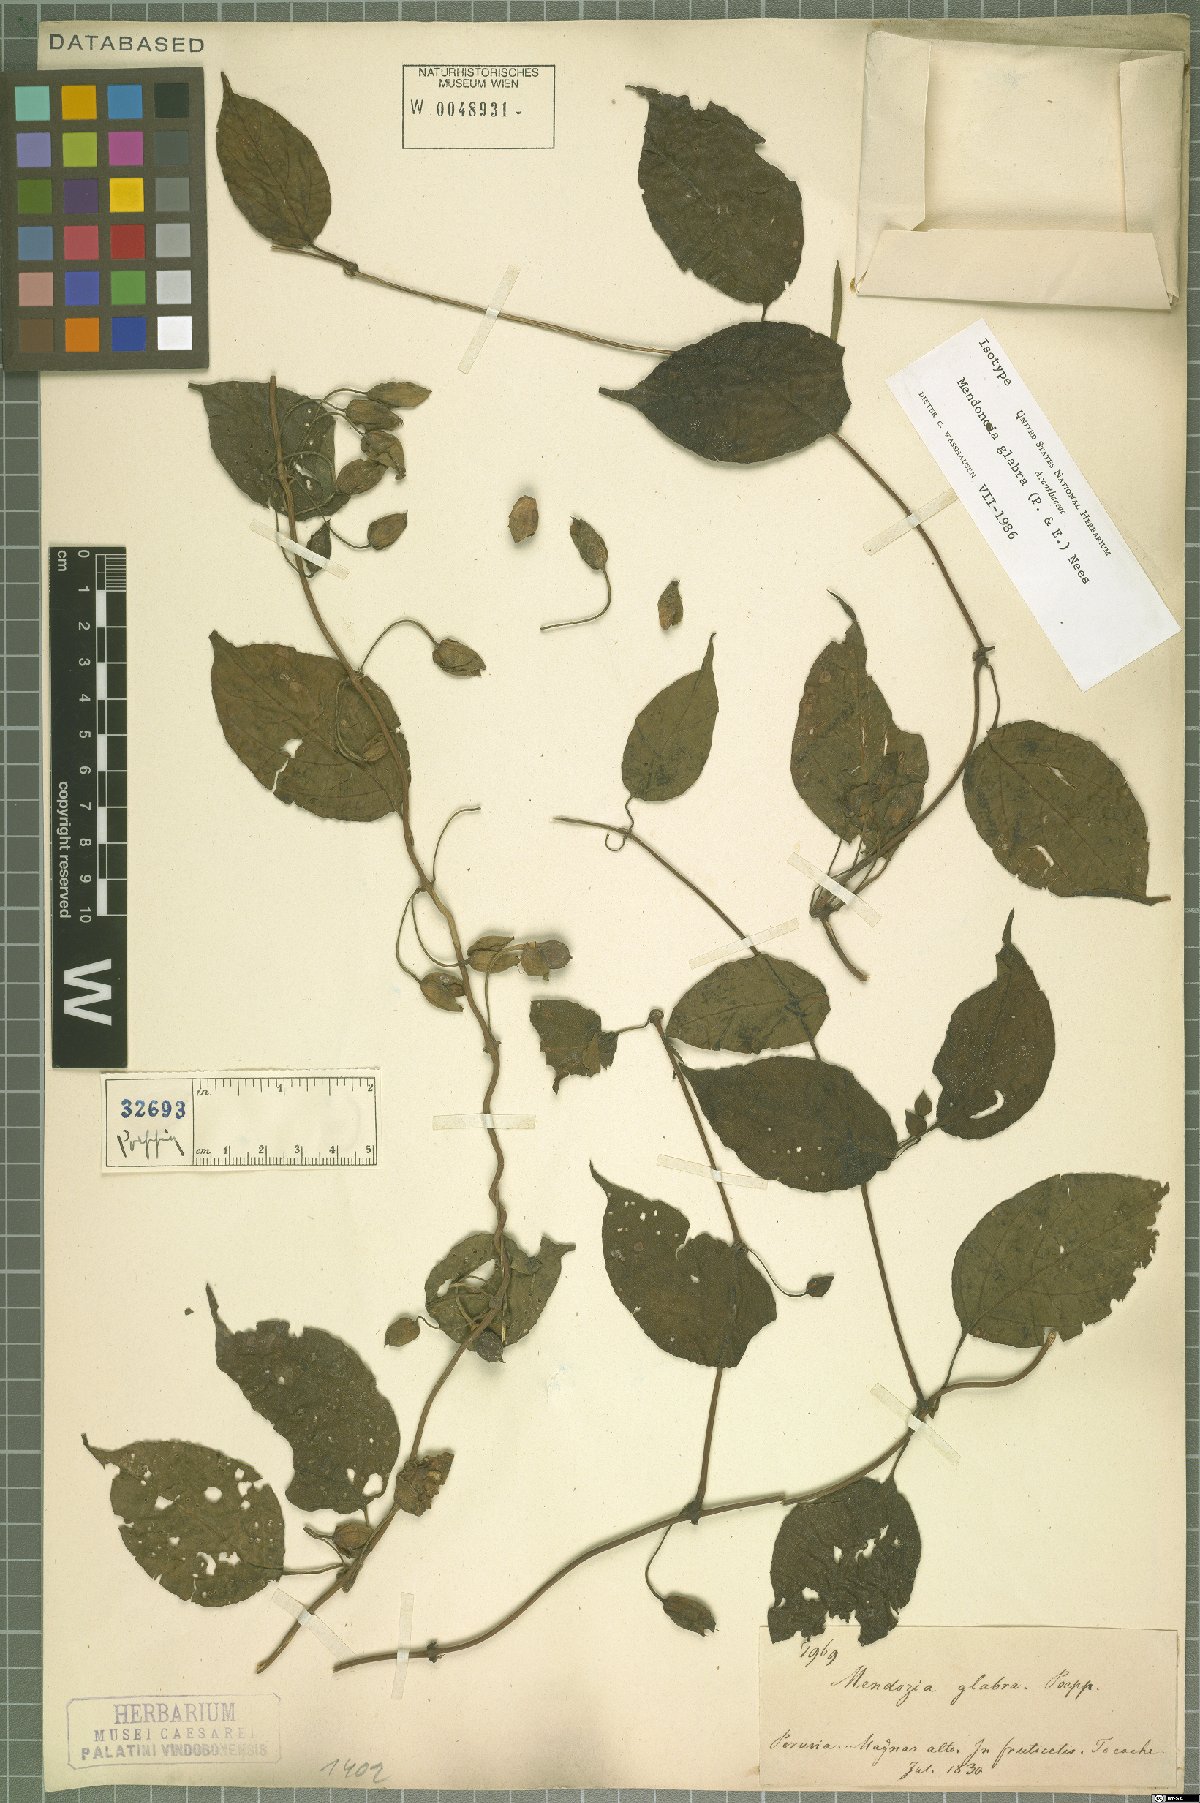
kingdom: Plantae
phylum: Tracheophyta
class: Magnoliopsida
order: Lamiales
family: Acanthaceae
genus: Mendoncia
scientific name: Mendoncia glabra
